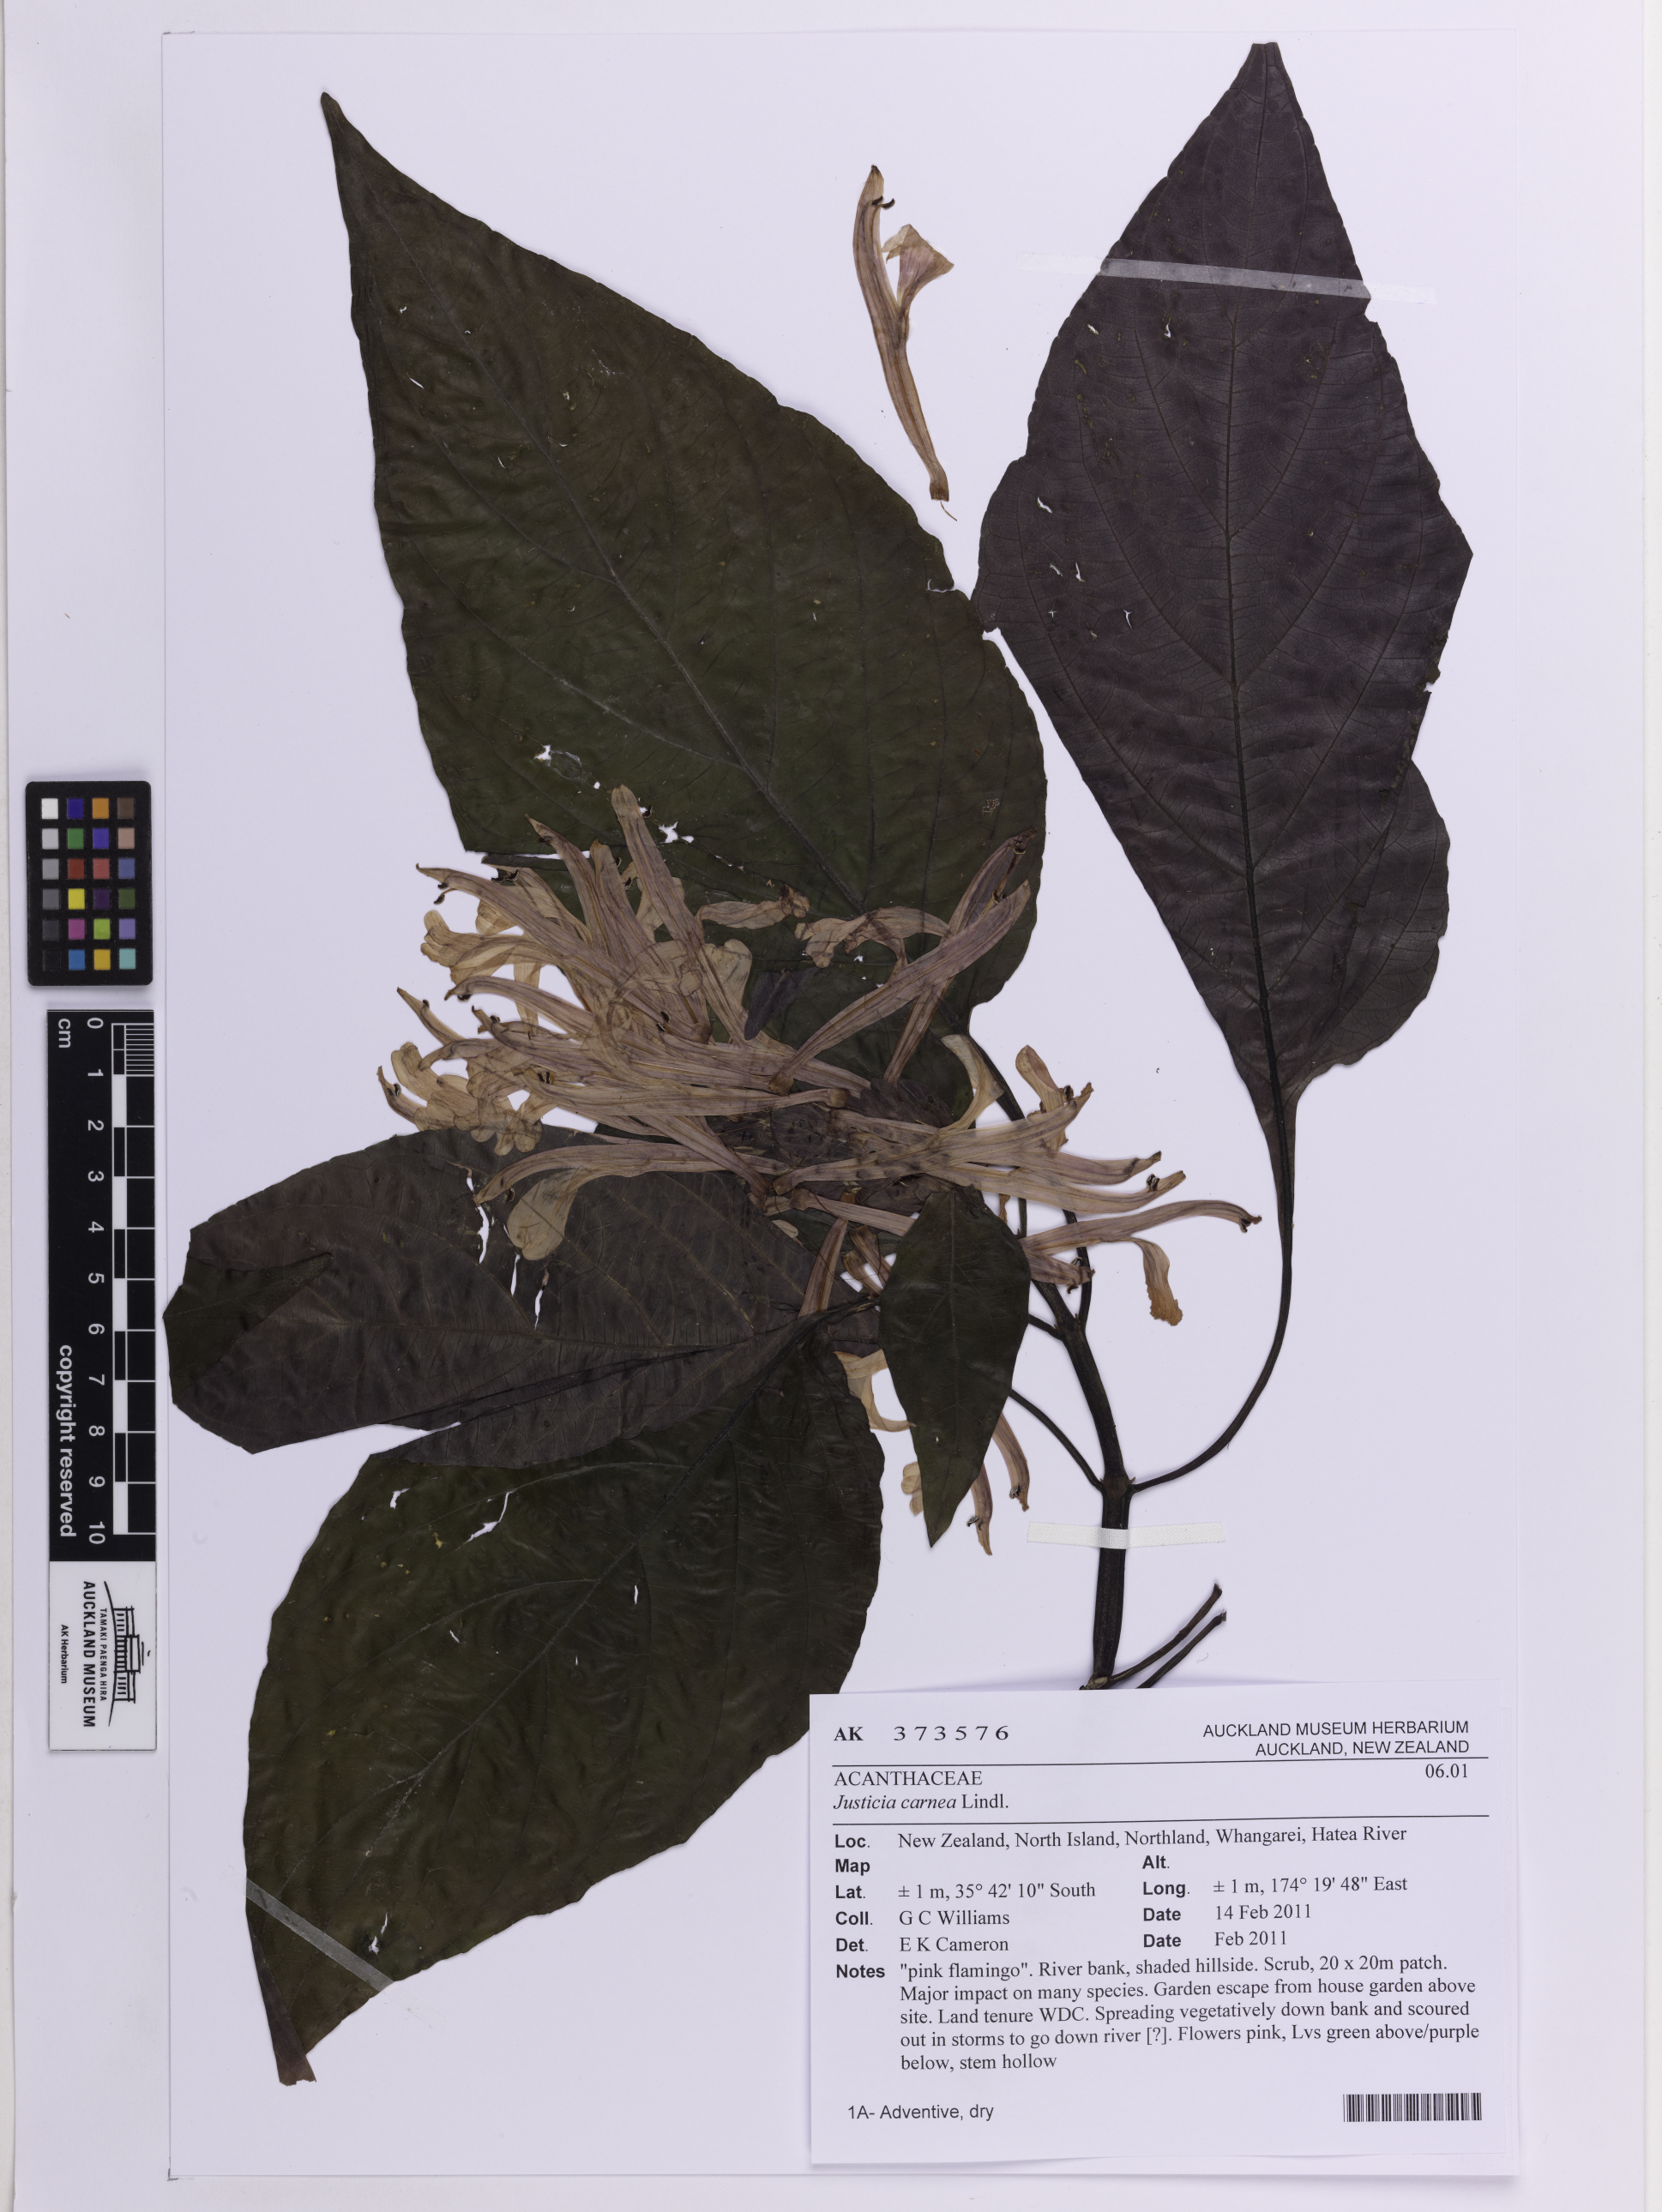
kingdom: Plantae
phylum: Tracheophyta
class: Magnoliopsida
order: Lamiales
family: Acanthaceae
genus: Justicia
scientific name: Justicia carnea
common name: Brazilian-plume
